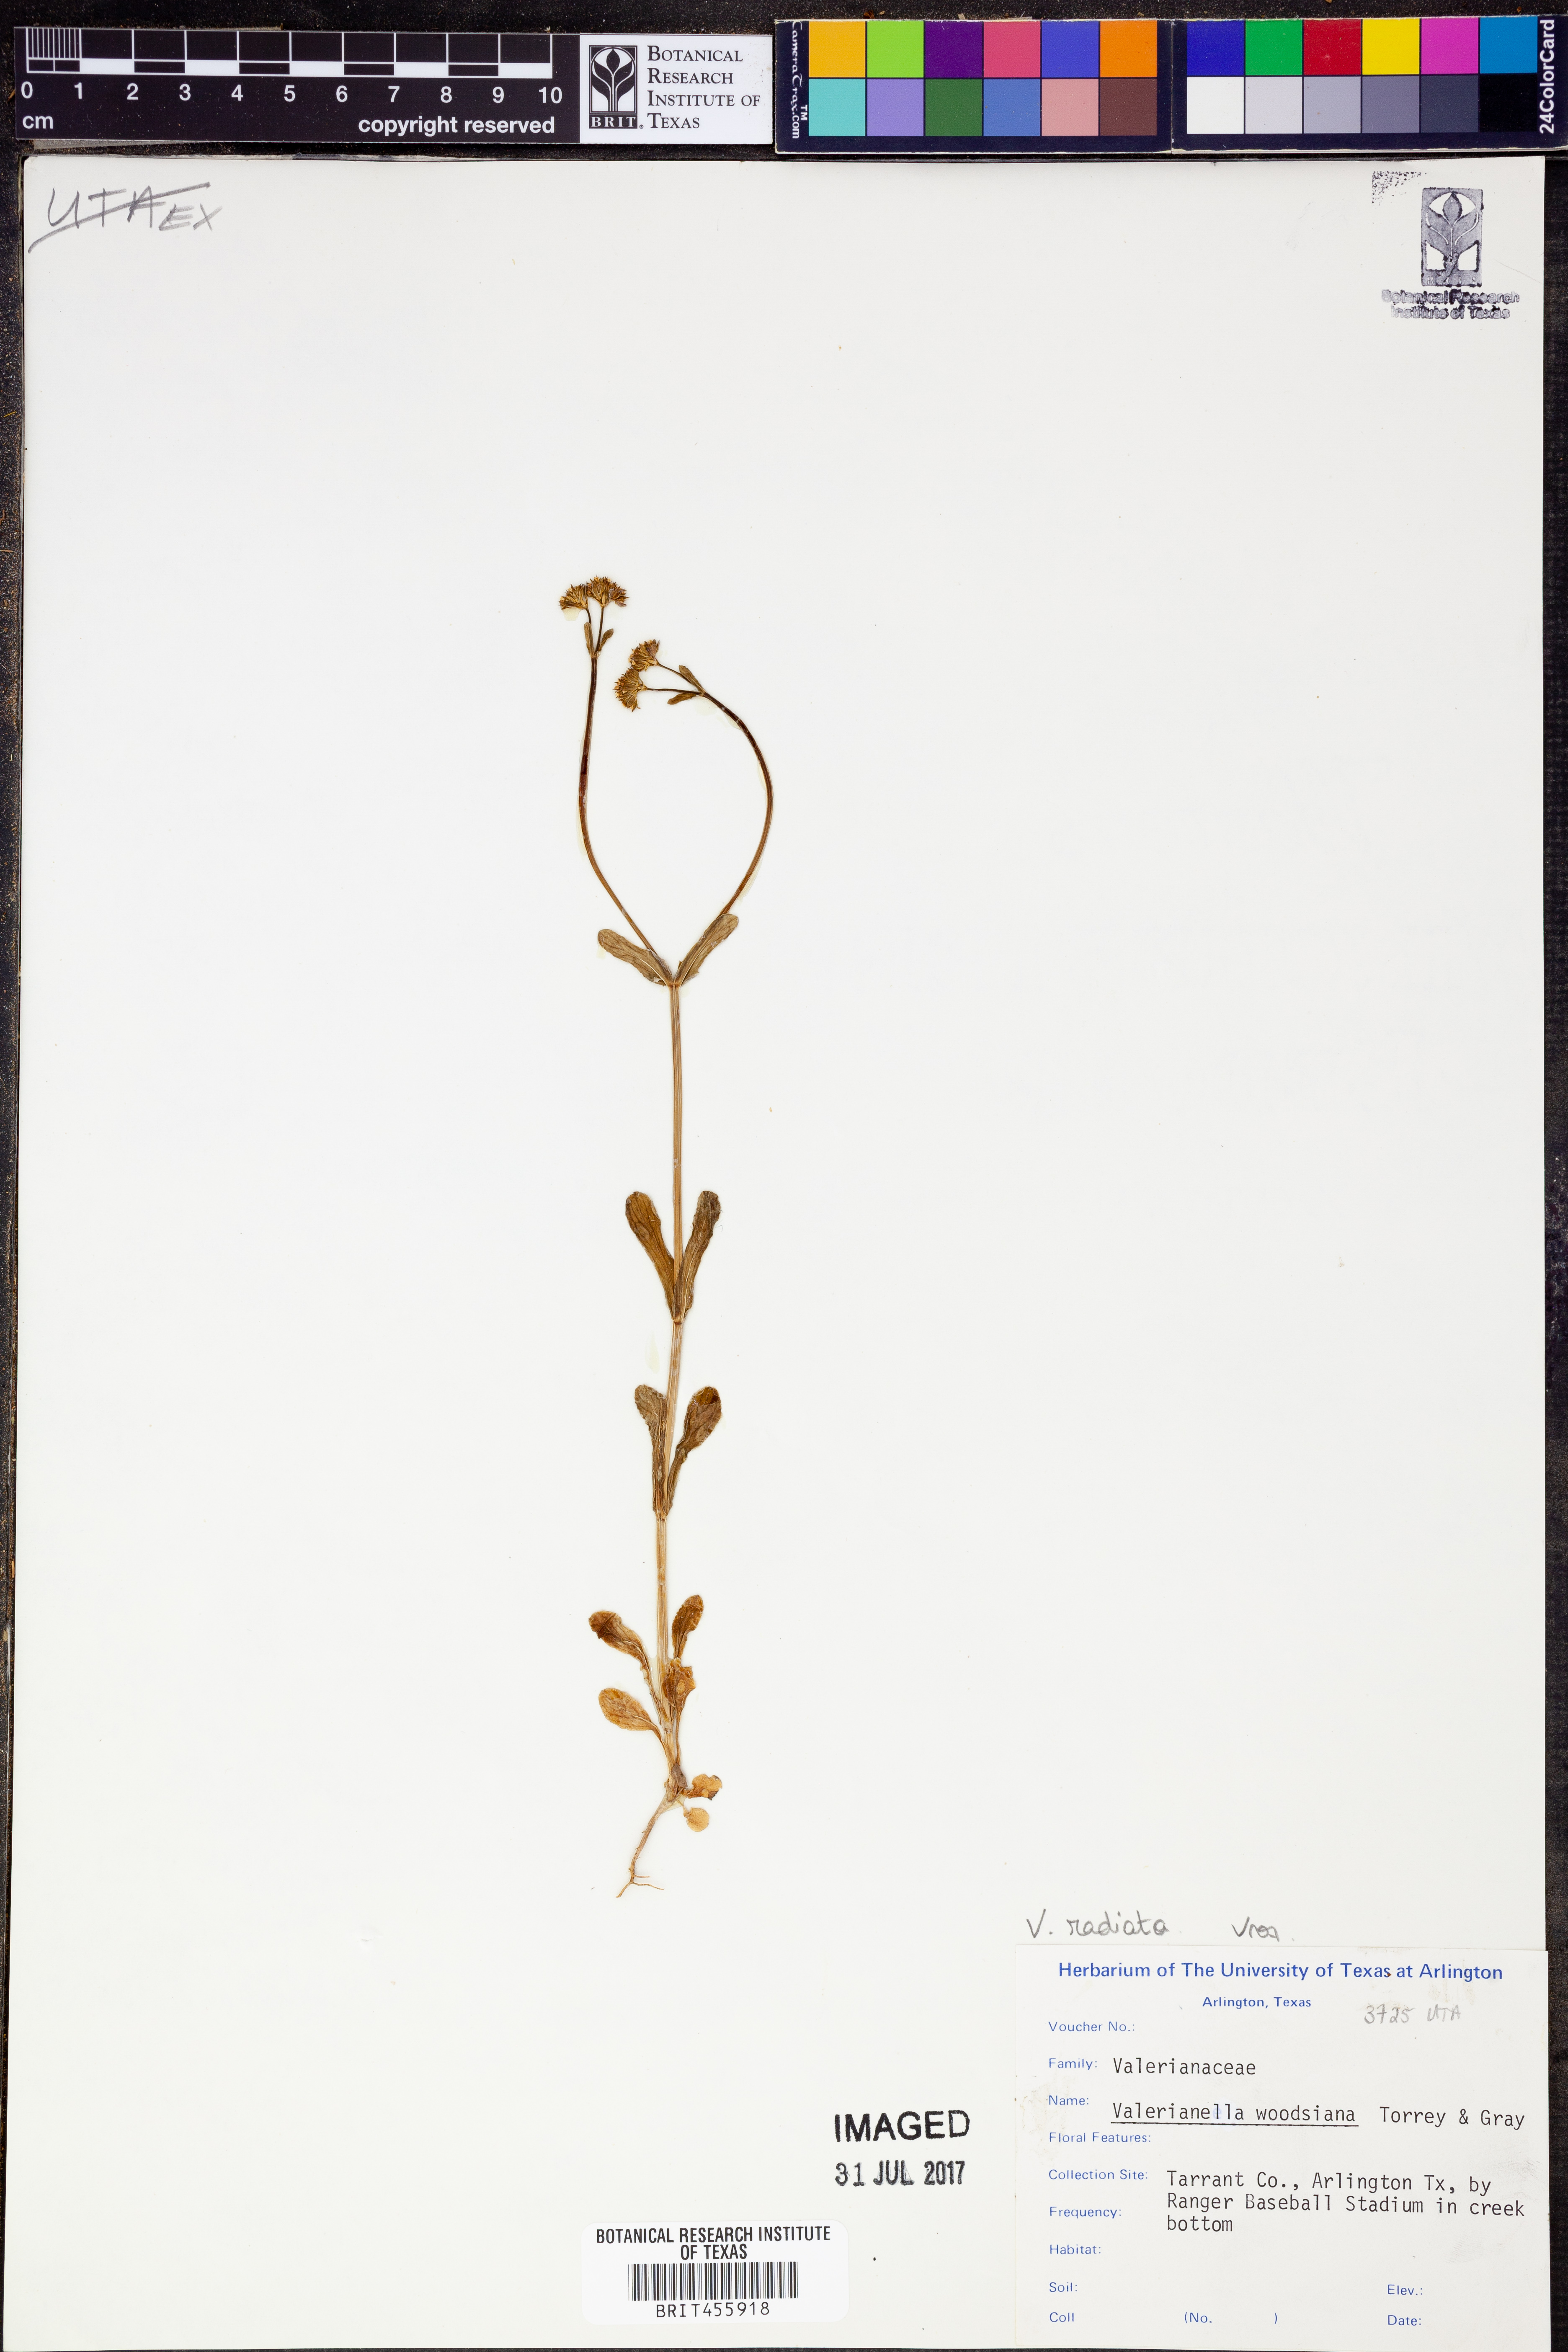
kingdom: Plantae
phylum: Tracheophyta
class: Magnoliopsida
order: Dipsacales
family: Caprifoliaceae
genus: Valerianella
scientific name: Valerianella radiata
